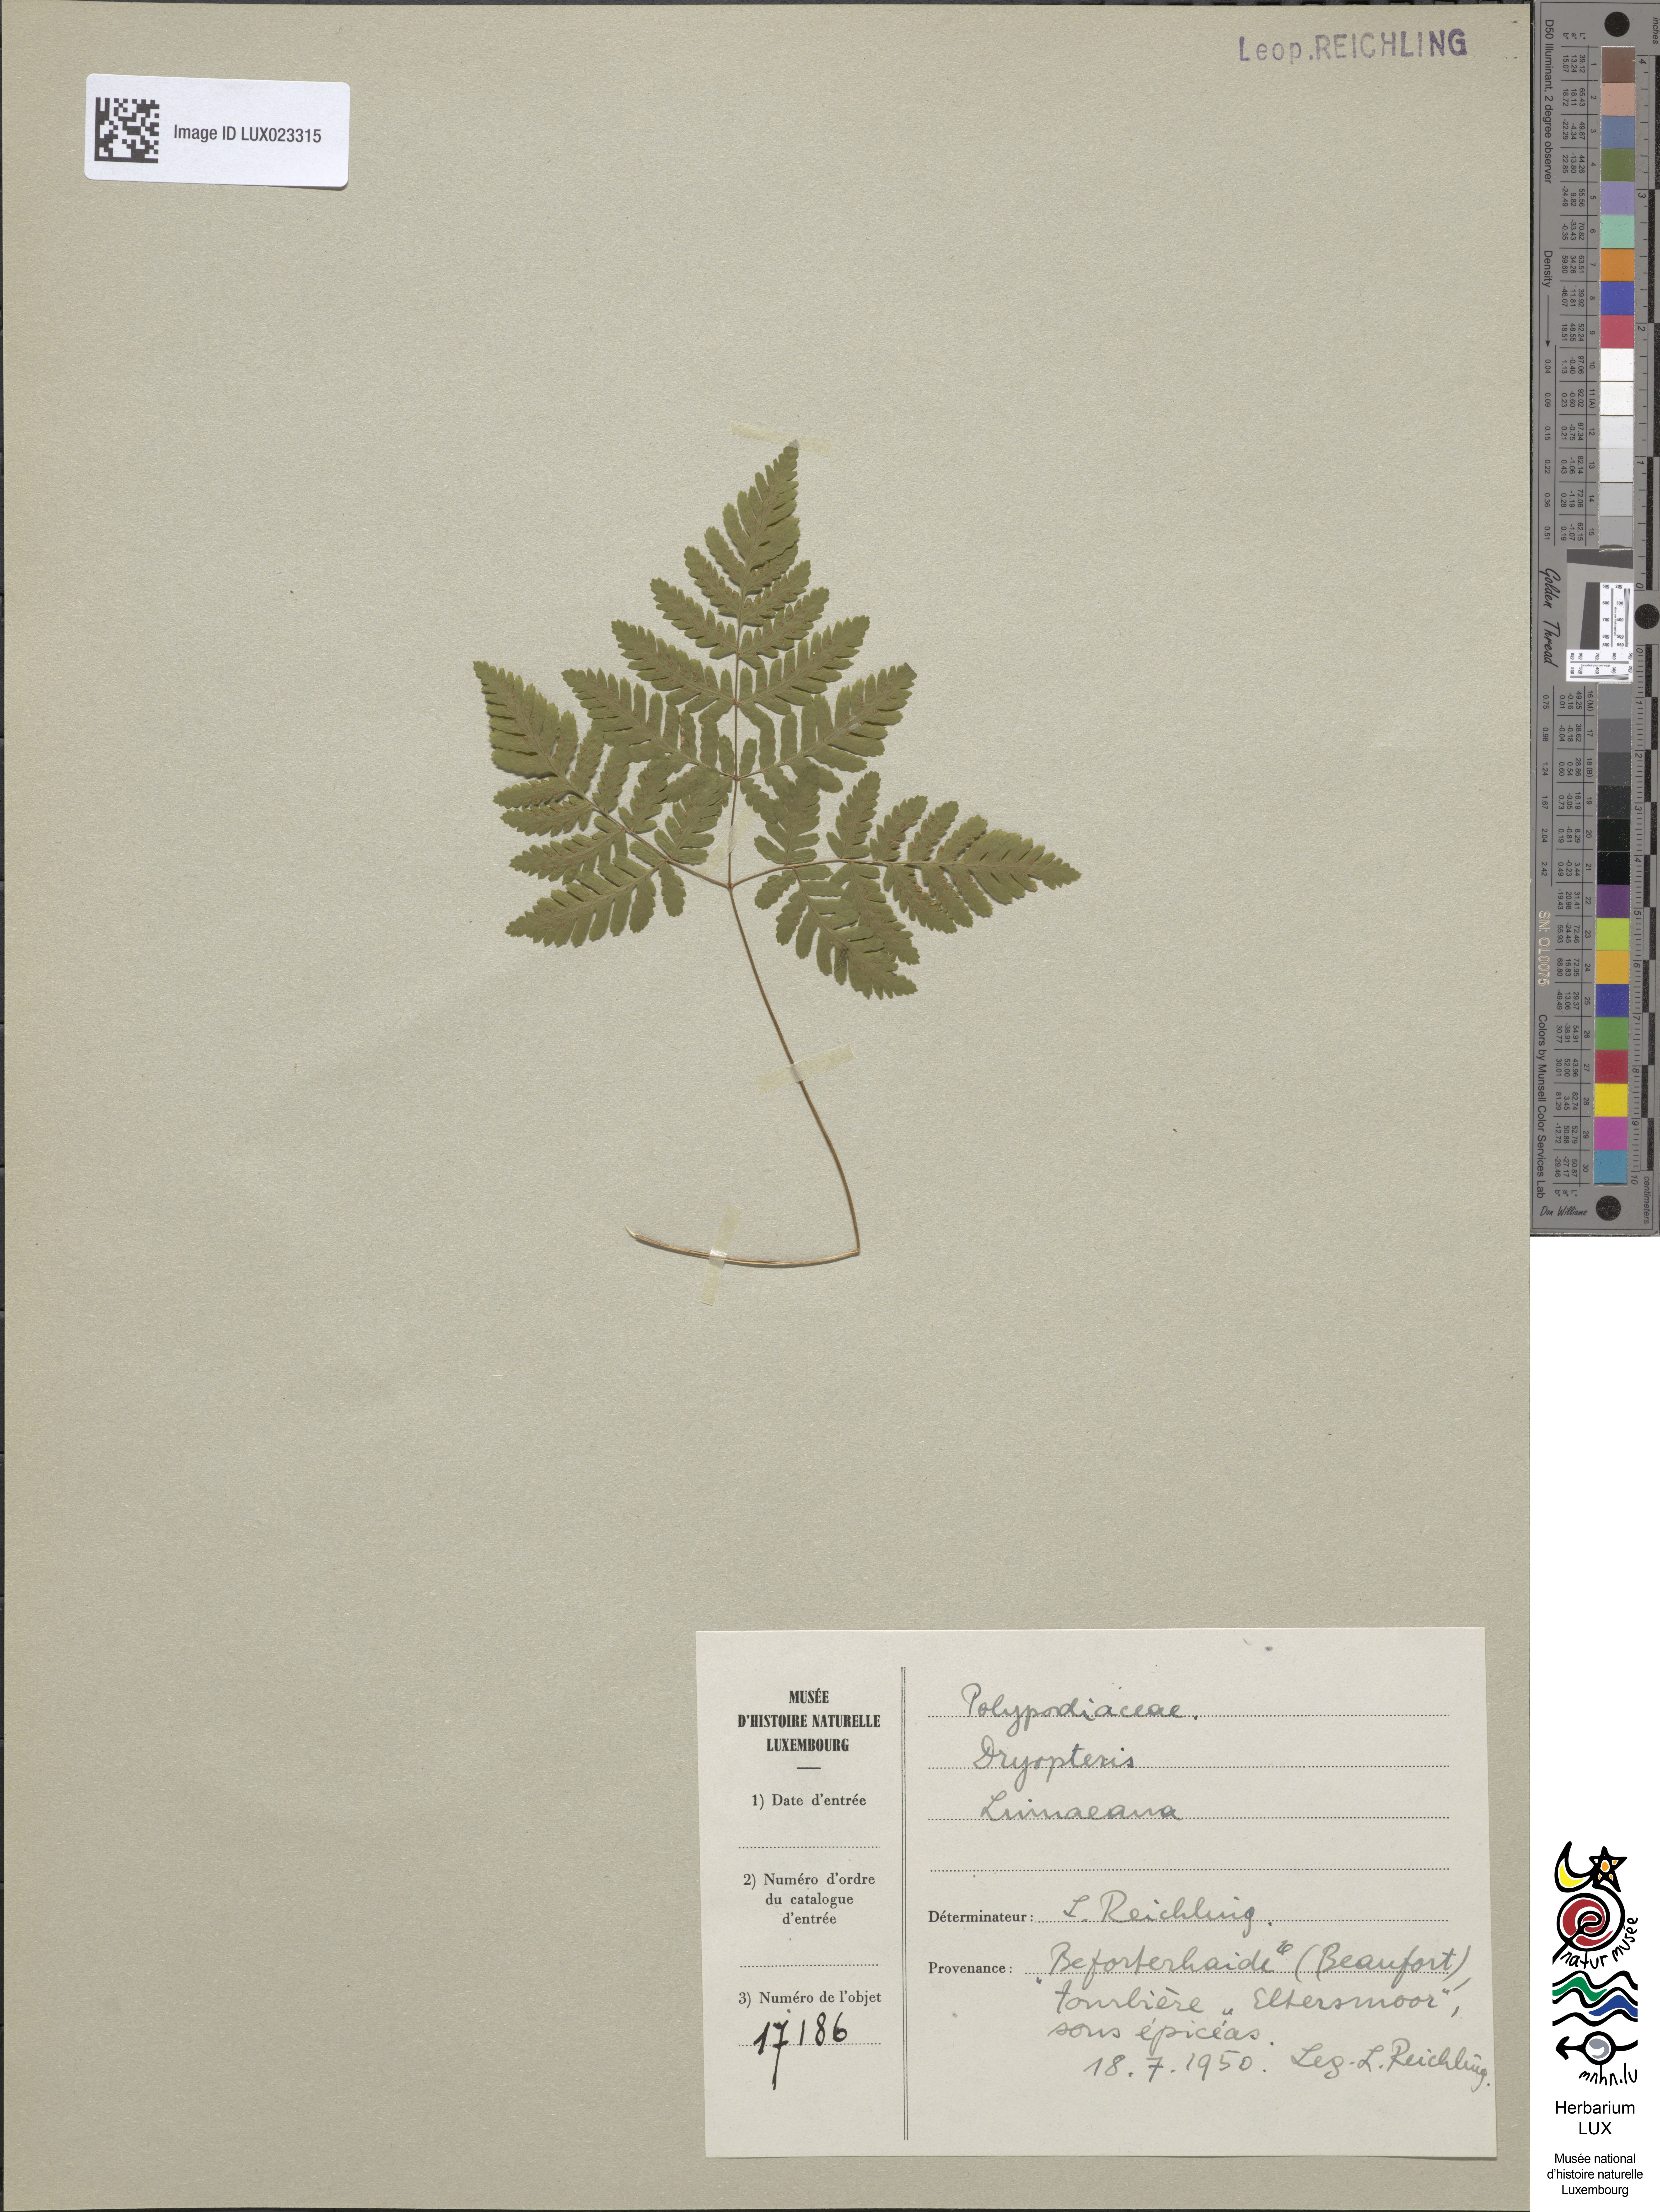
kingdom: Plantae
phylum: Tracheophyta
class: Polypodiopsida
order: Polypodiales
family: Cystopteridaceae
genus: Gymnocarpium
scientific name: Gymnocarpium dryopteris
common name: Oak fern
